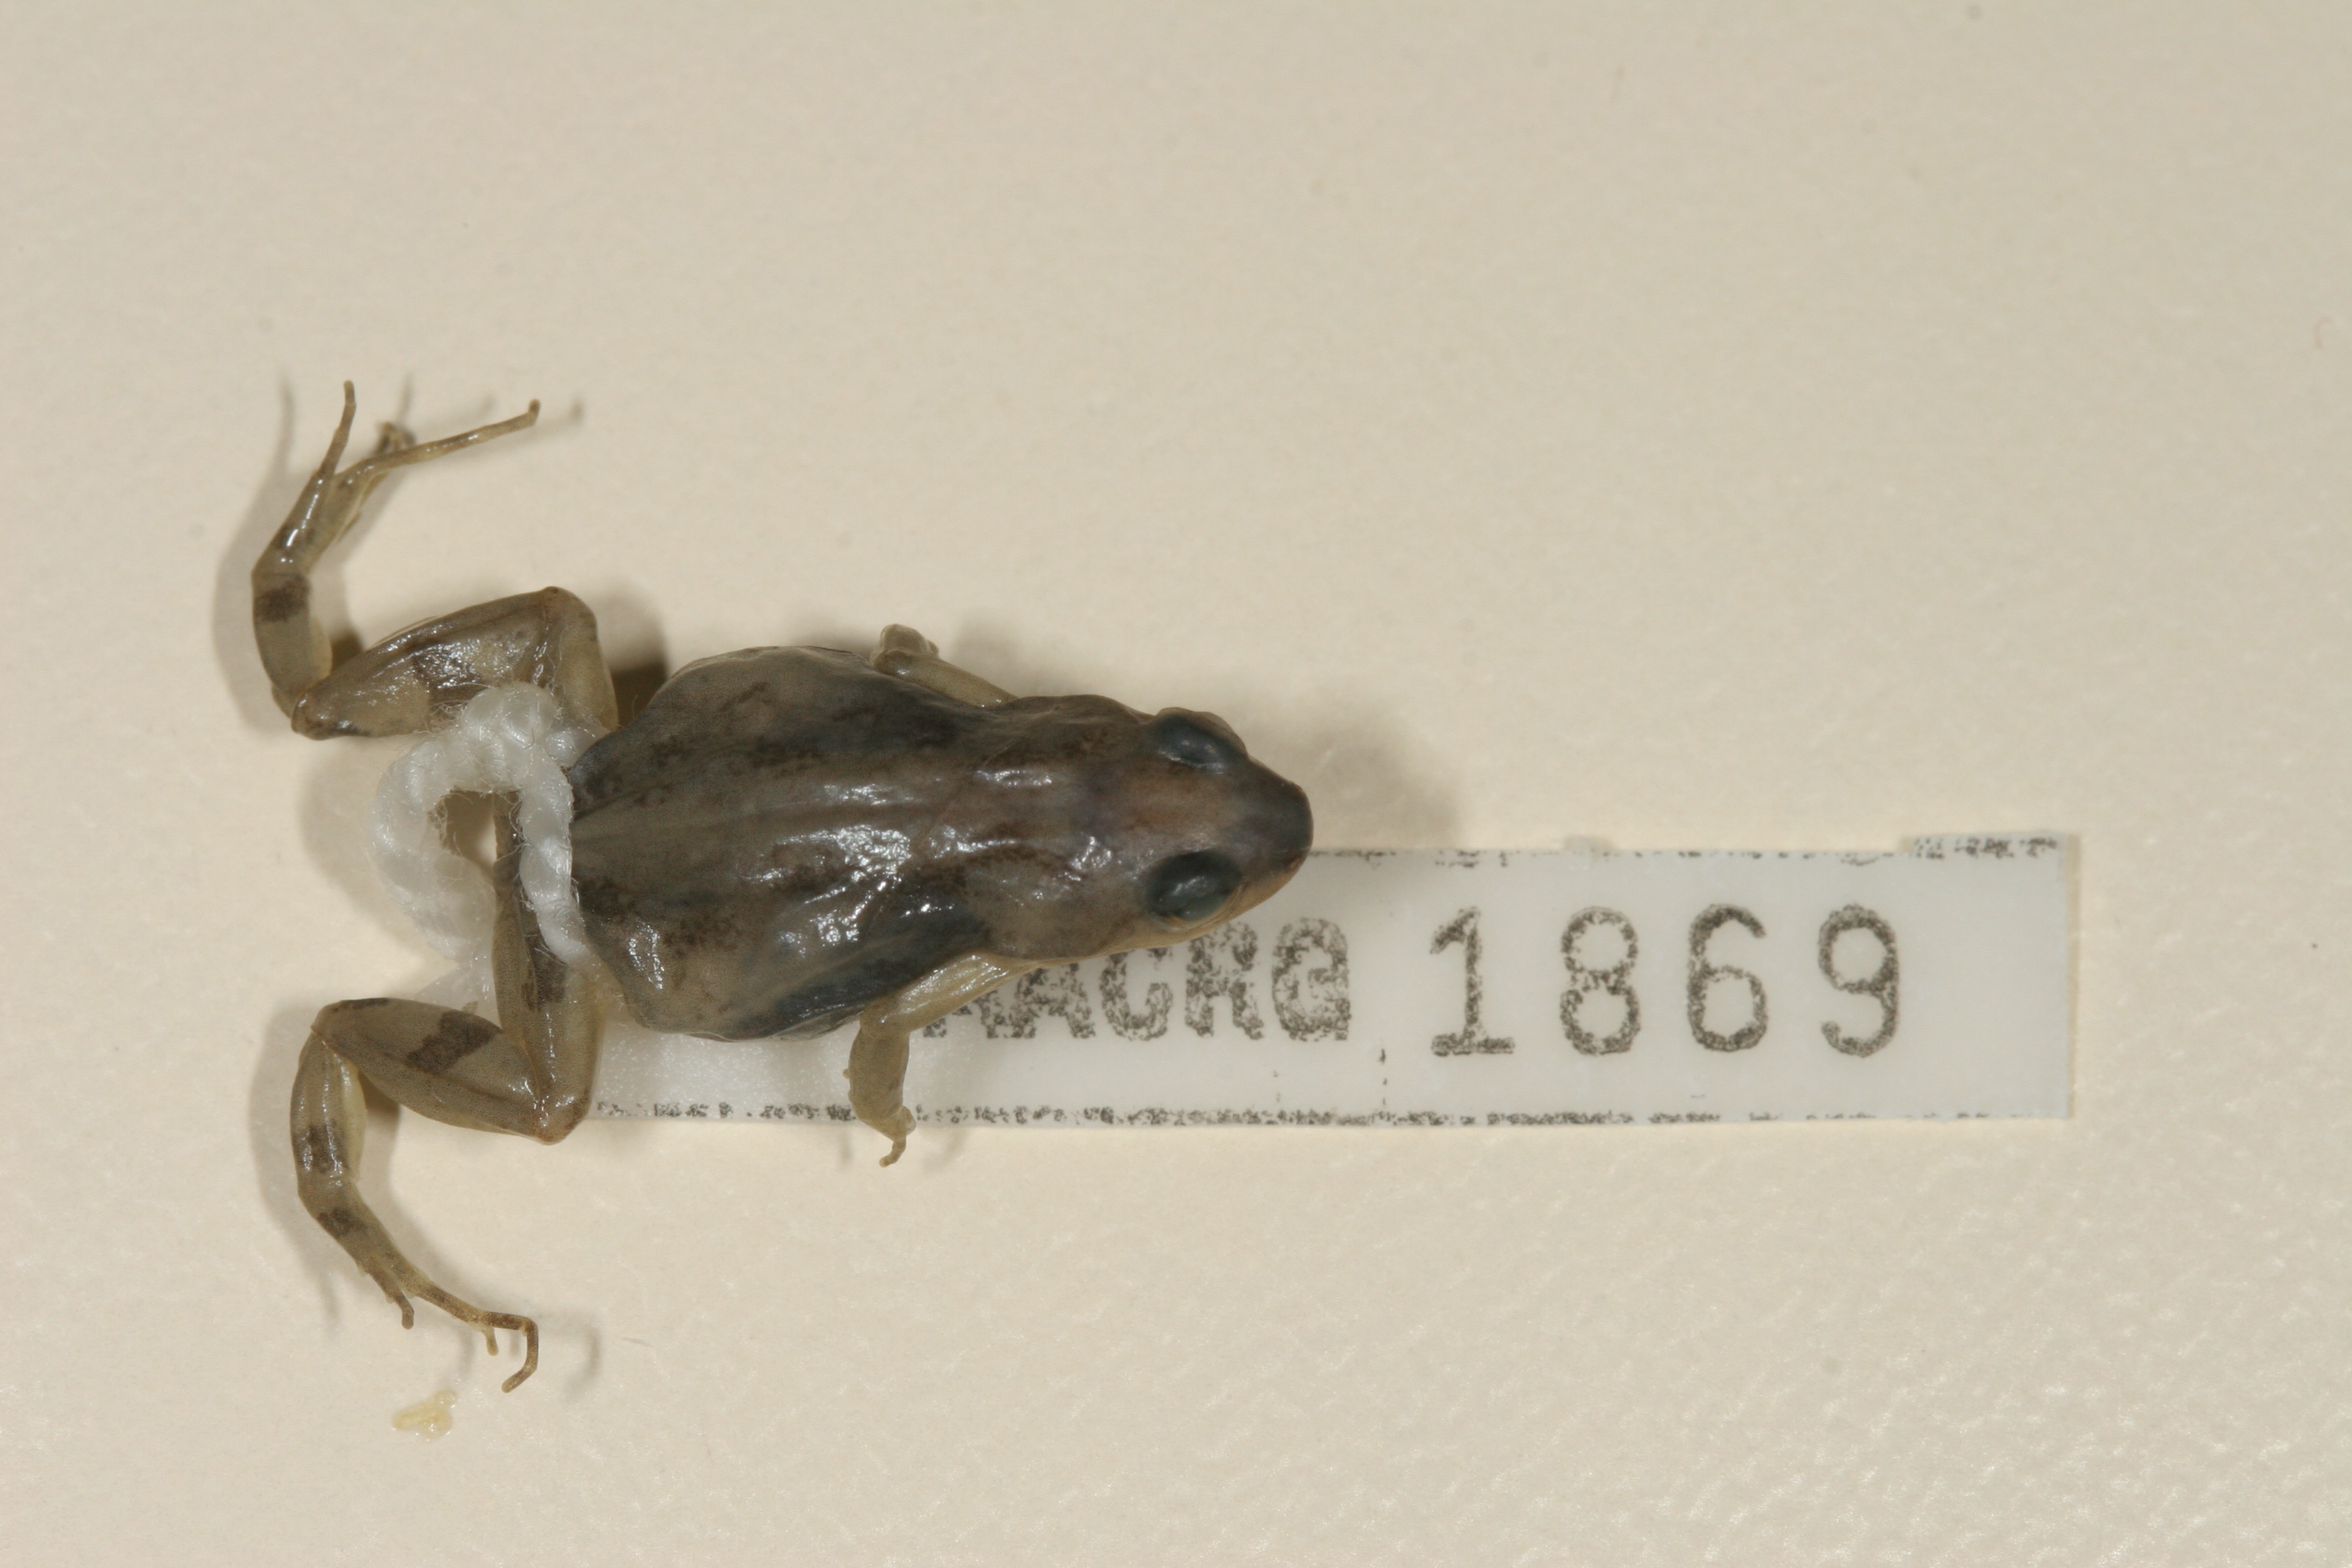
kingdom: Animalia
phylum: Chordata
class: Amphibia
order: Anura
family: Pyxicephalidae
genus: Cacosternum
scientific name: Cacosternum boettgeri
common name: Boettger's frog
